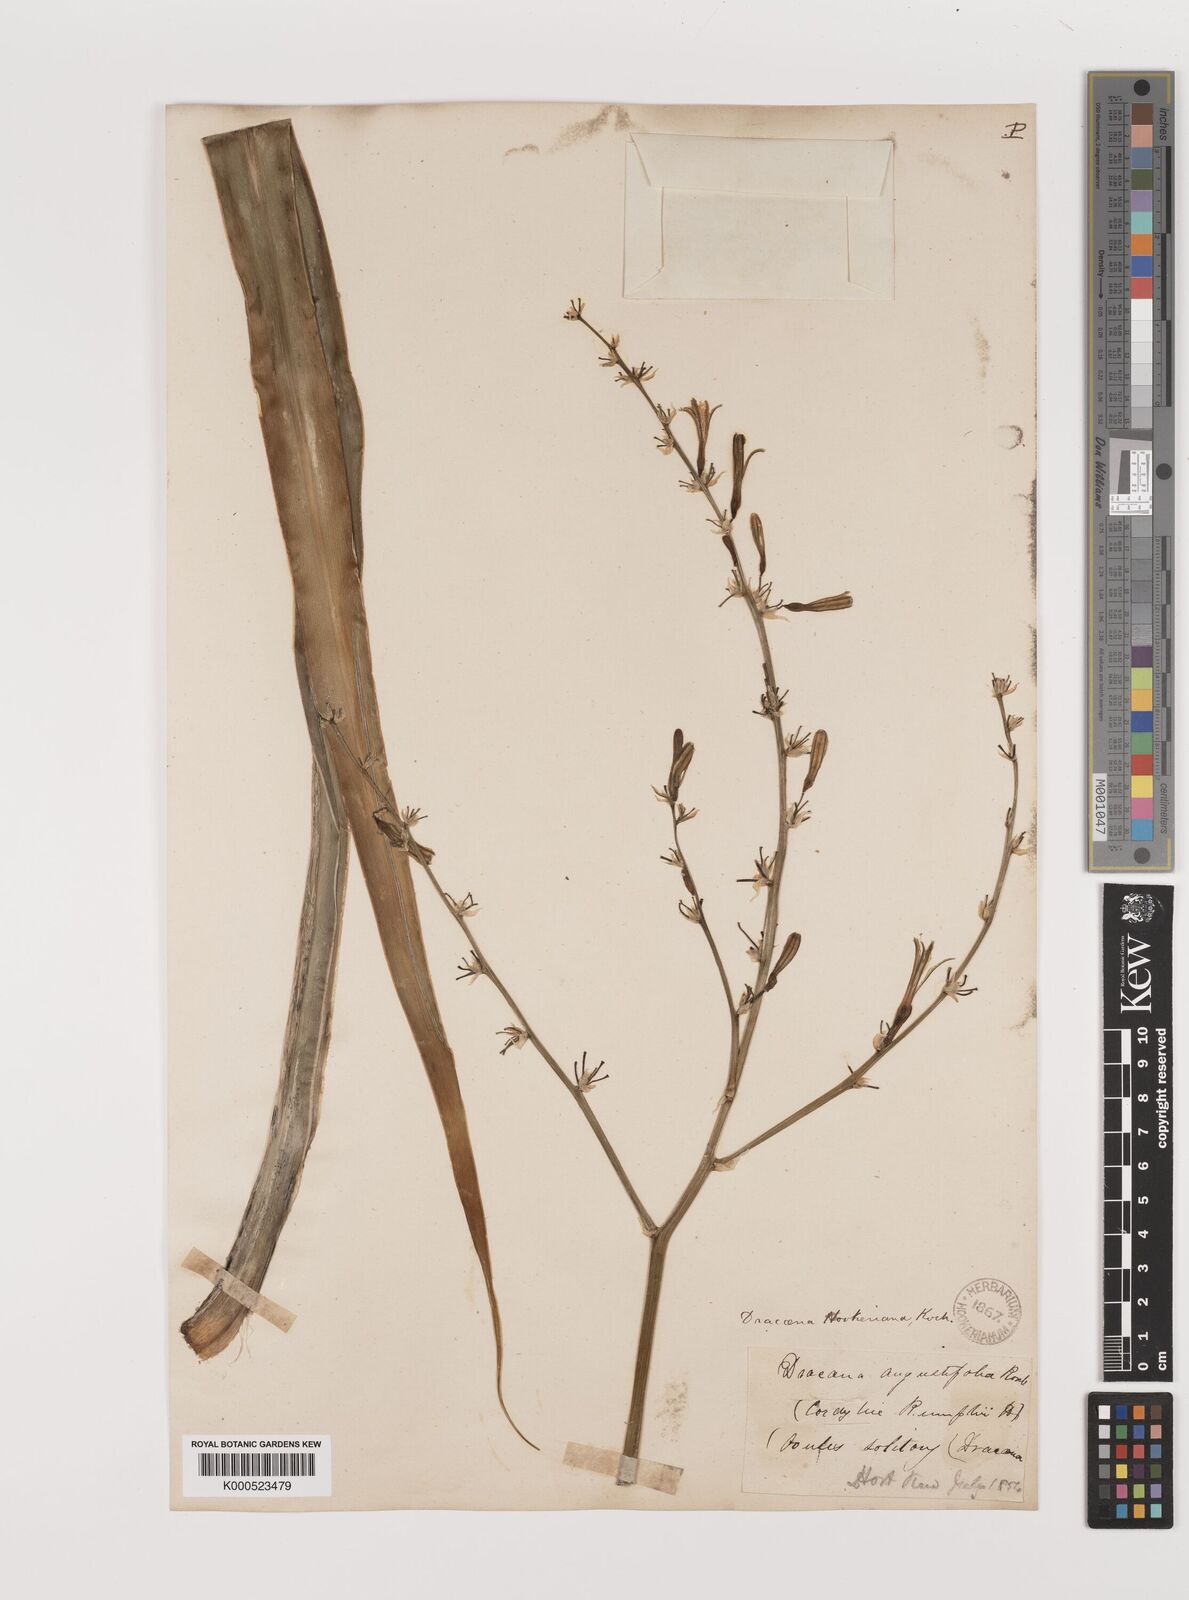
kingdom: Plantae
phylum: Tracheophyta
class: Liliopsida
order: Asparagales
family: Asparagaceae
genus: Dracaena
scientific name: Dracaena aletriformis
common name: Large-leaved dragon tree
